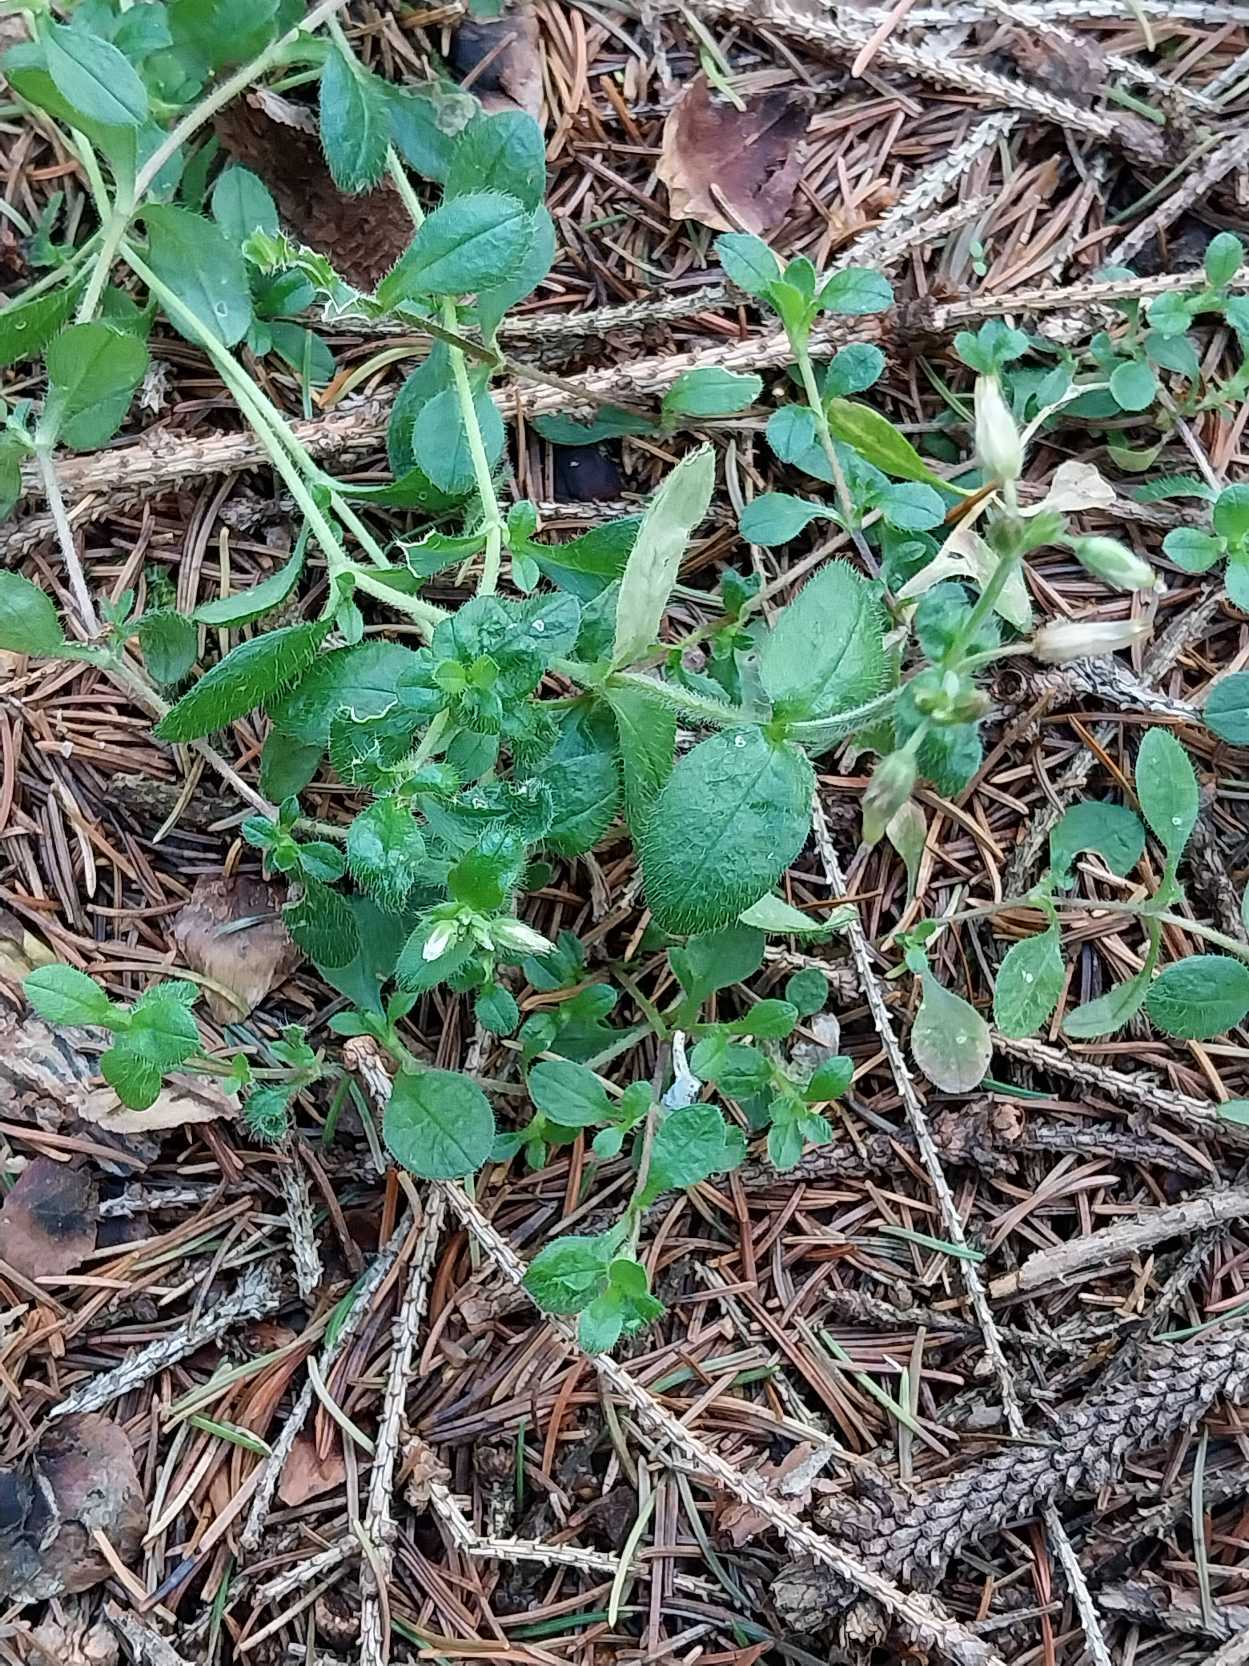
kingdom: Plantae
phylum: Tracheophyta
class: Magnoliopsida
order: Caryophyllales
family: Caryophyllaceae
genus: Cerastium
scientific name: Cerastium fontanum
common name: Almindelig hønsetarm
